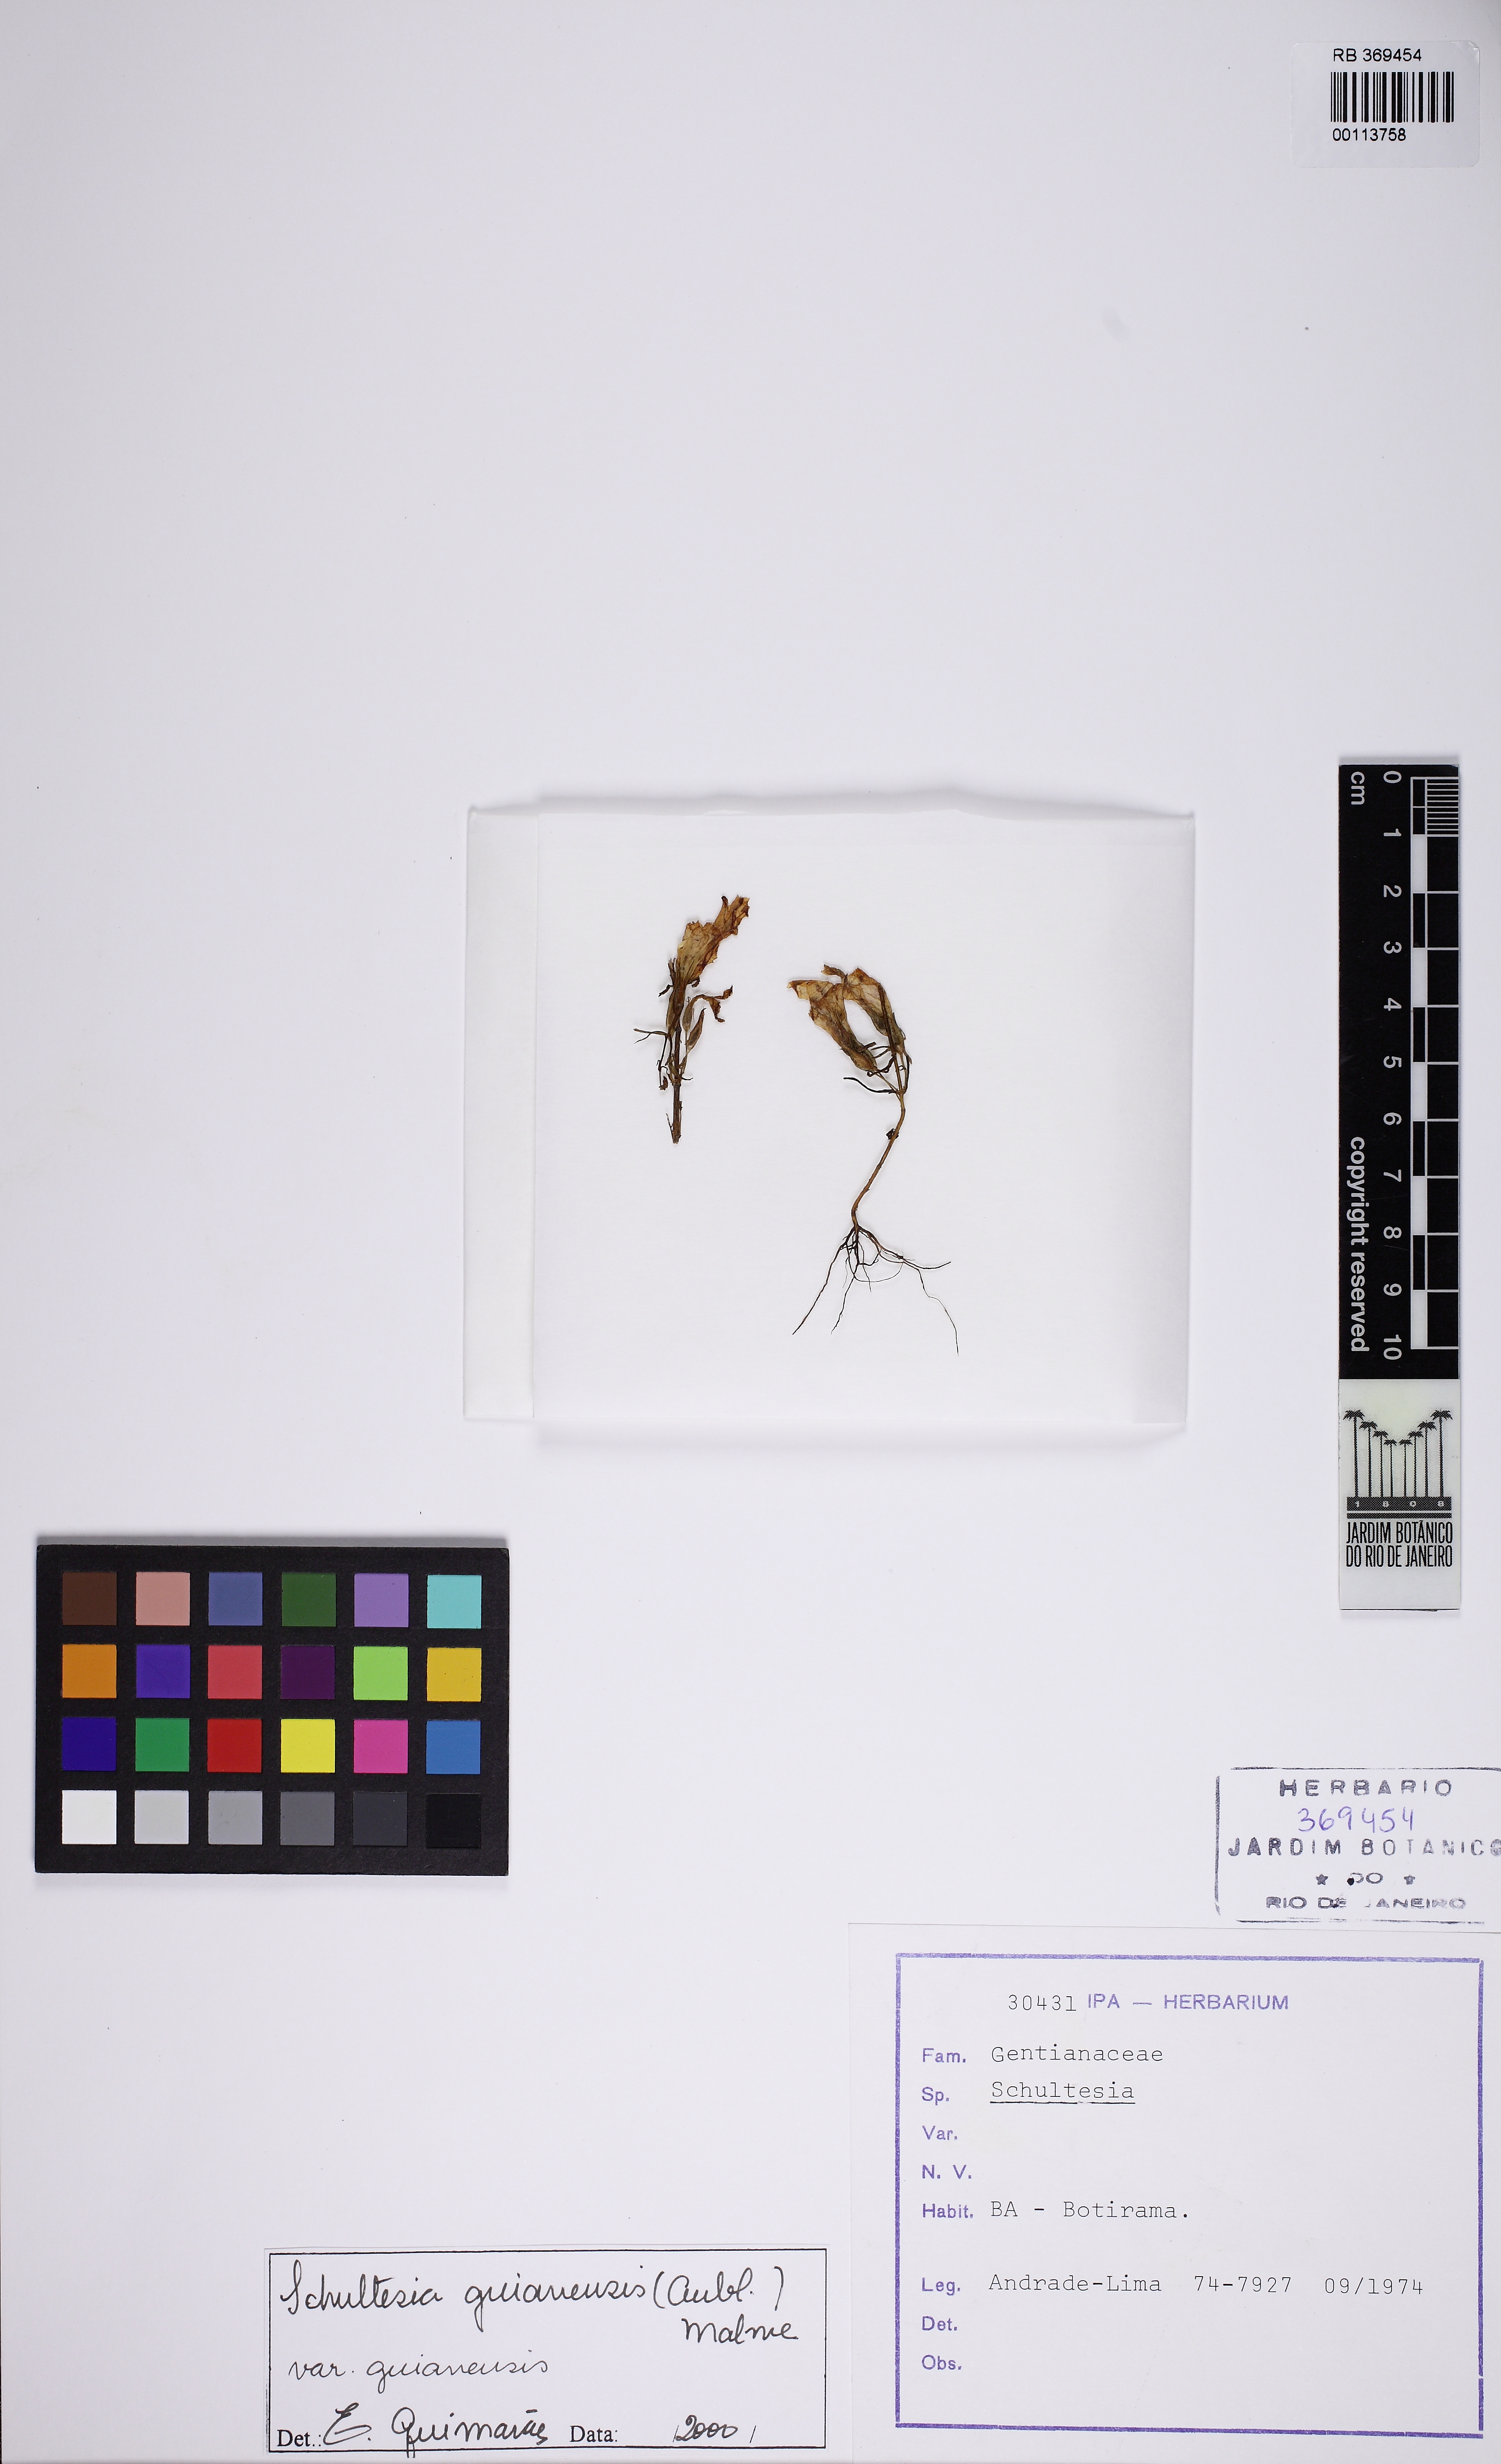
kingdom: Plantae
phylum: Tracheophyta
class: Magnoliopsida
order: Gentianales
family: Gentianaceae
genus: Schultesia
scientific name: Schultesia guianensis
